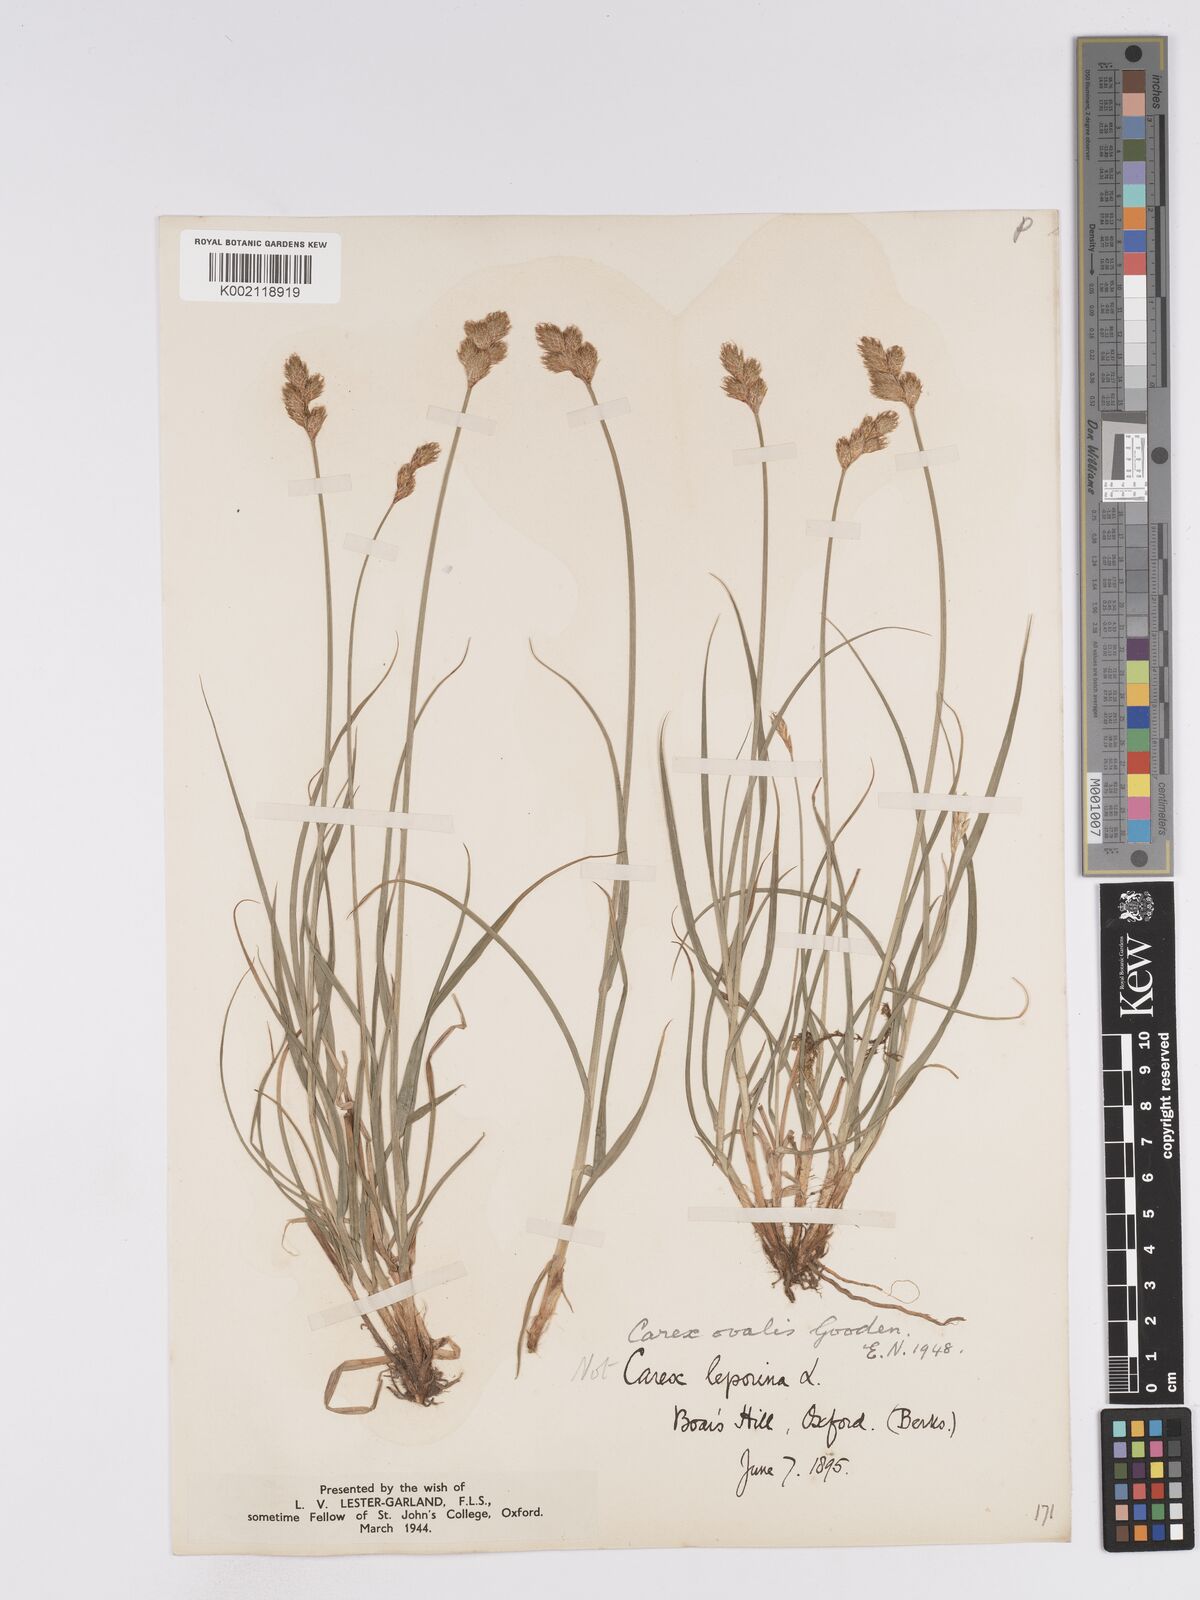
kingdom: Plantae
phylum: Tracheophyta
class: Liliopsida
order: Poales
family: Cyperaceae
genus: Carex
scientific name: Carex leporina
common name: Oval sedge
